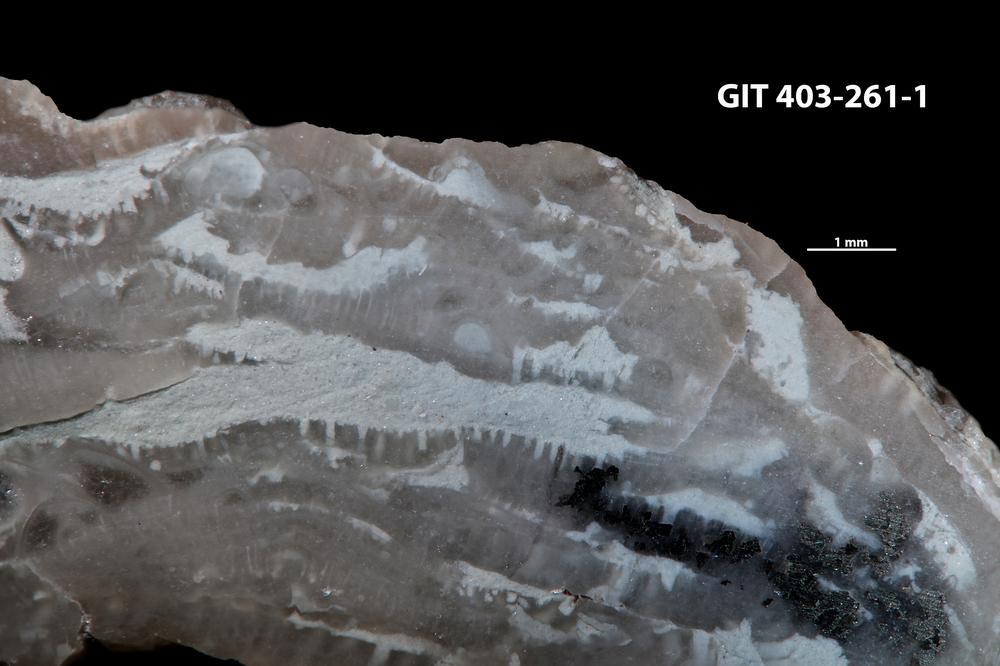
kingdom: Animalia
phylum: Cnidaria
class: Anthozoa
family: Auloporidae
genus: Aulopora
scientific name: Aulopora amica
